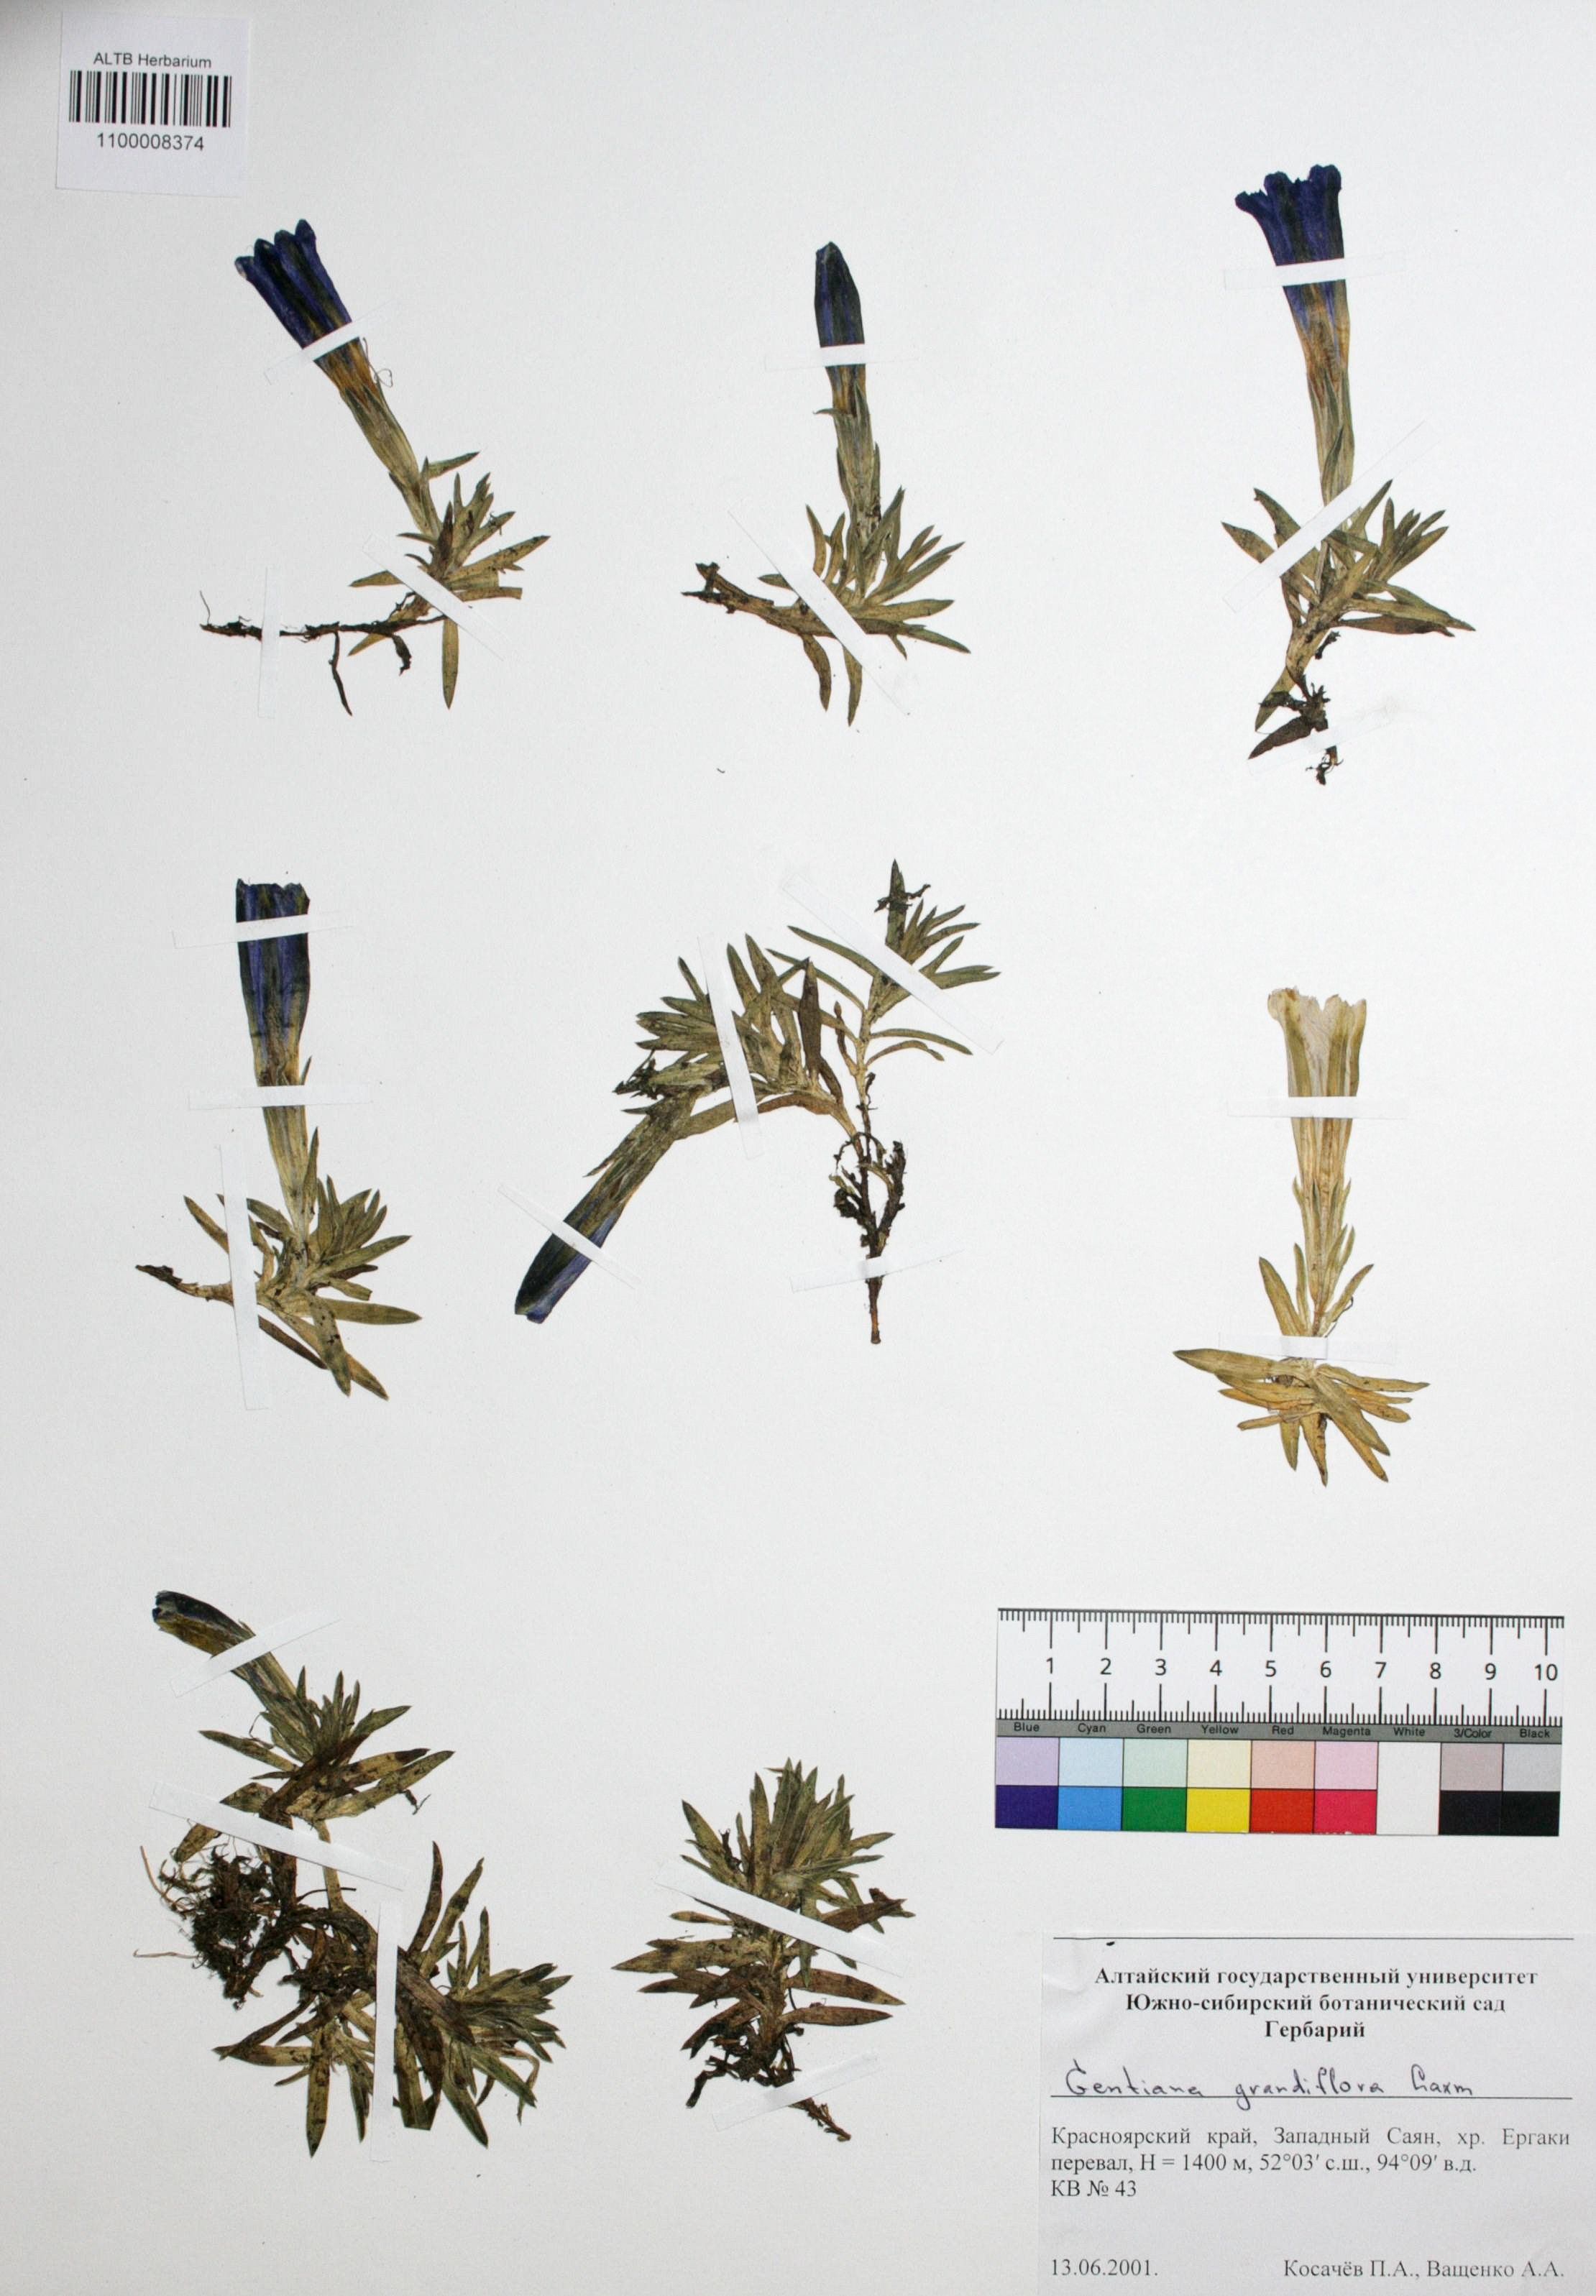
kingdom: Plantae
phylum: Tracheophyta
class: Magnoliopsida
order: Gentianales
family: Gentianaceae
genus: Gentiana
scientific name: Gentiana grandiflora
